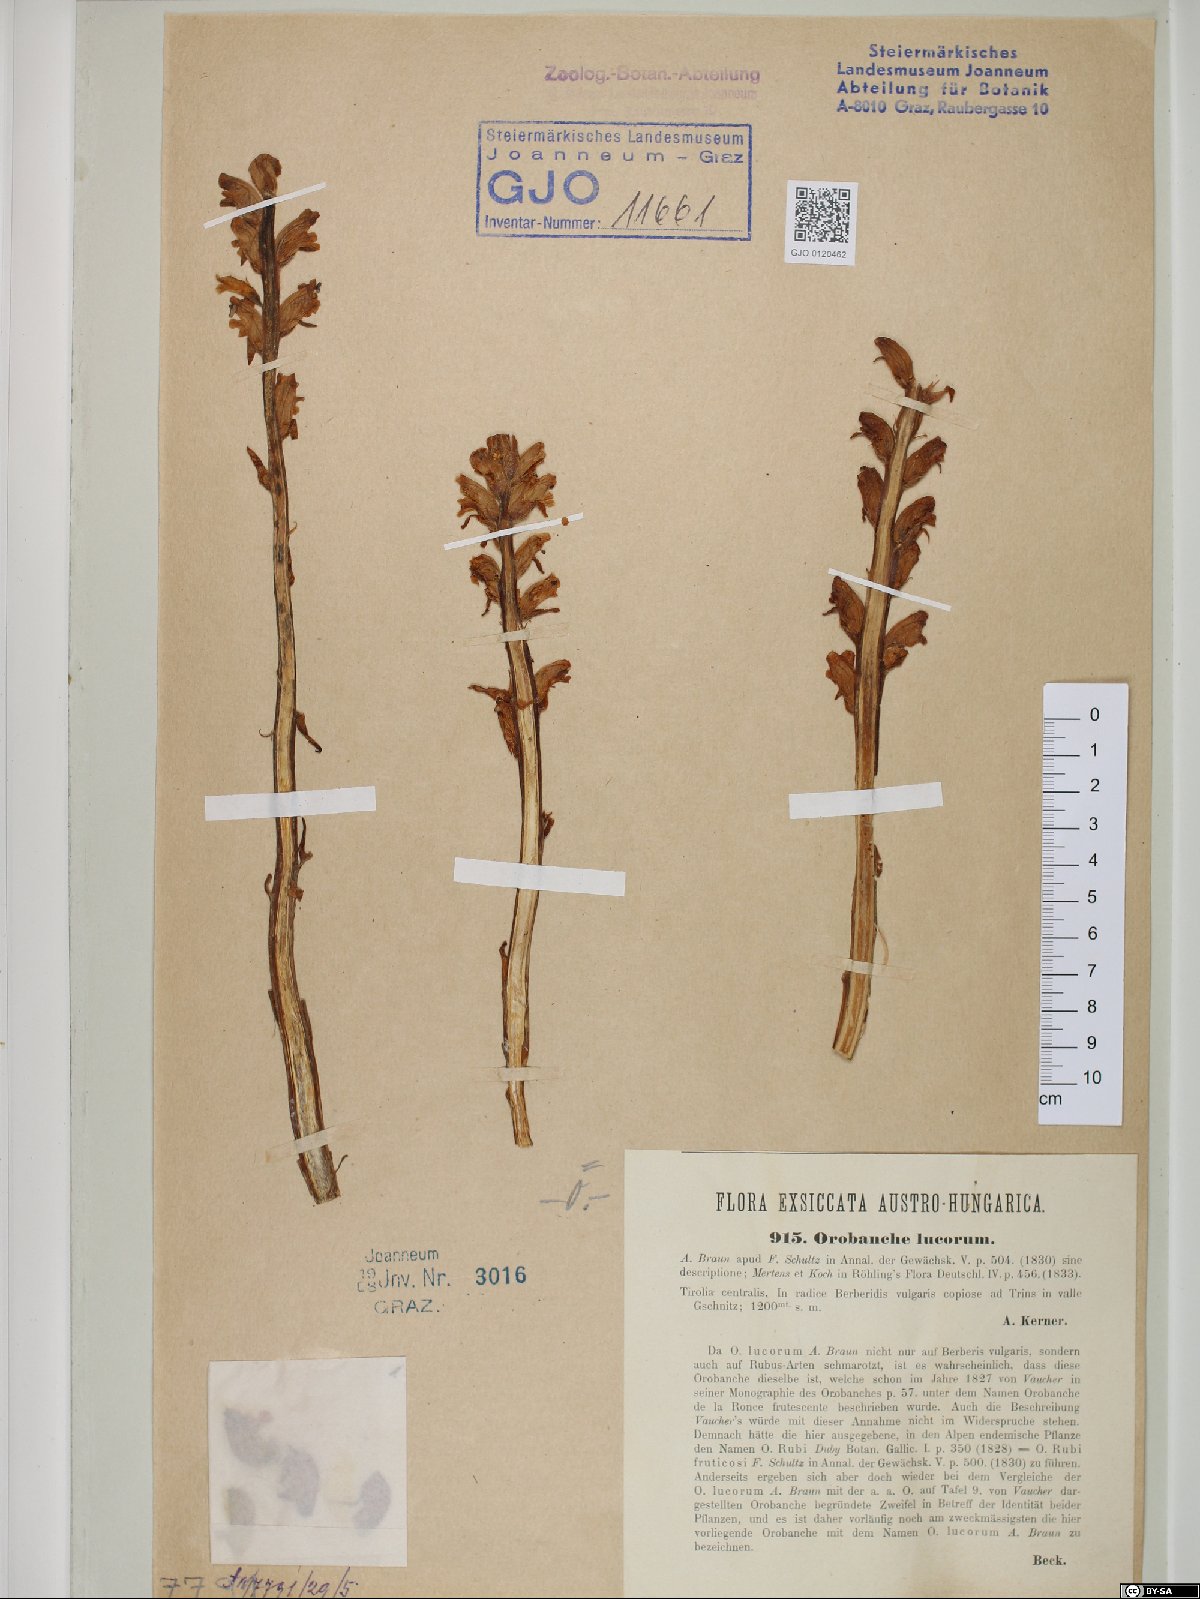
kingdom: Plantae
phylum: Tracheophyta
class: Magnoliopsida
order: Lamiales
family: Orobanchaceae
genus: Orobanche
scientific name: Orobanche lucorum
